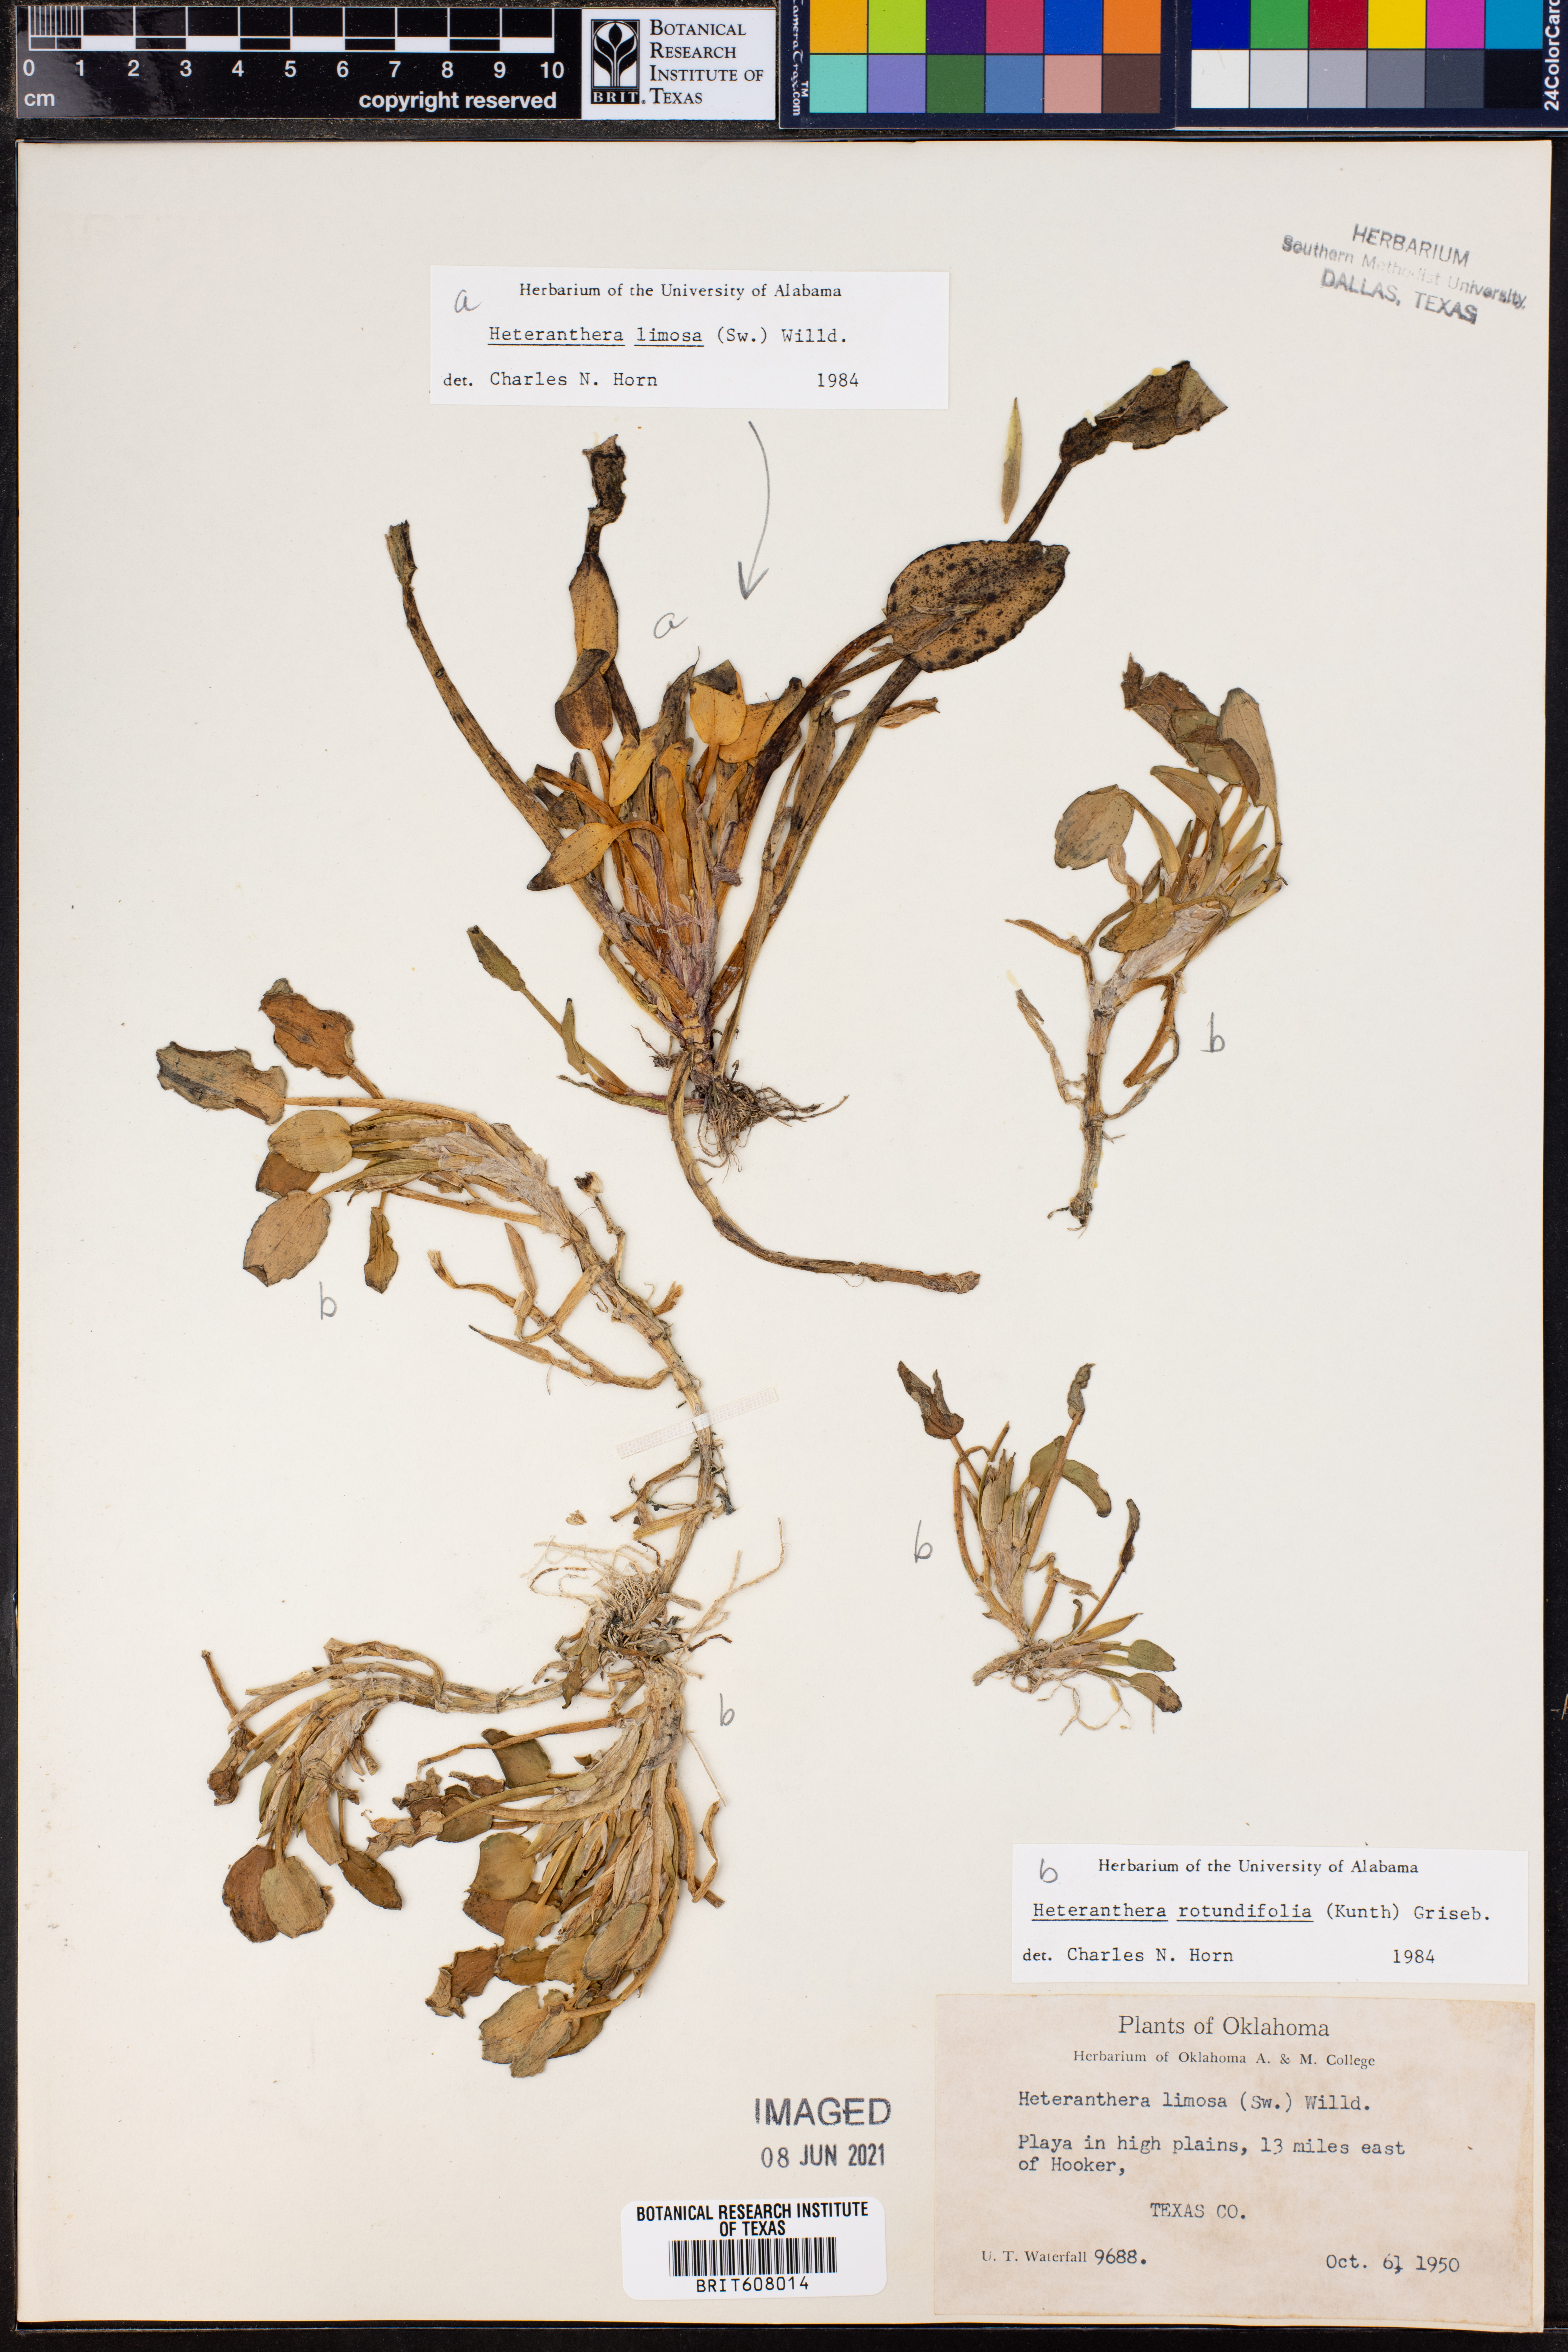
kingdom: Plantae
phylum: Tracheophyta
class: Liliopsida
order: Commelinales
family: Pontederiaceae
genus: Heteranthera
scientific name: Heteranthera rotundifolia
